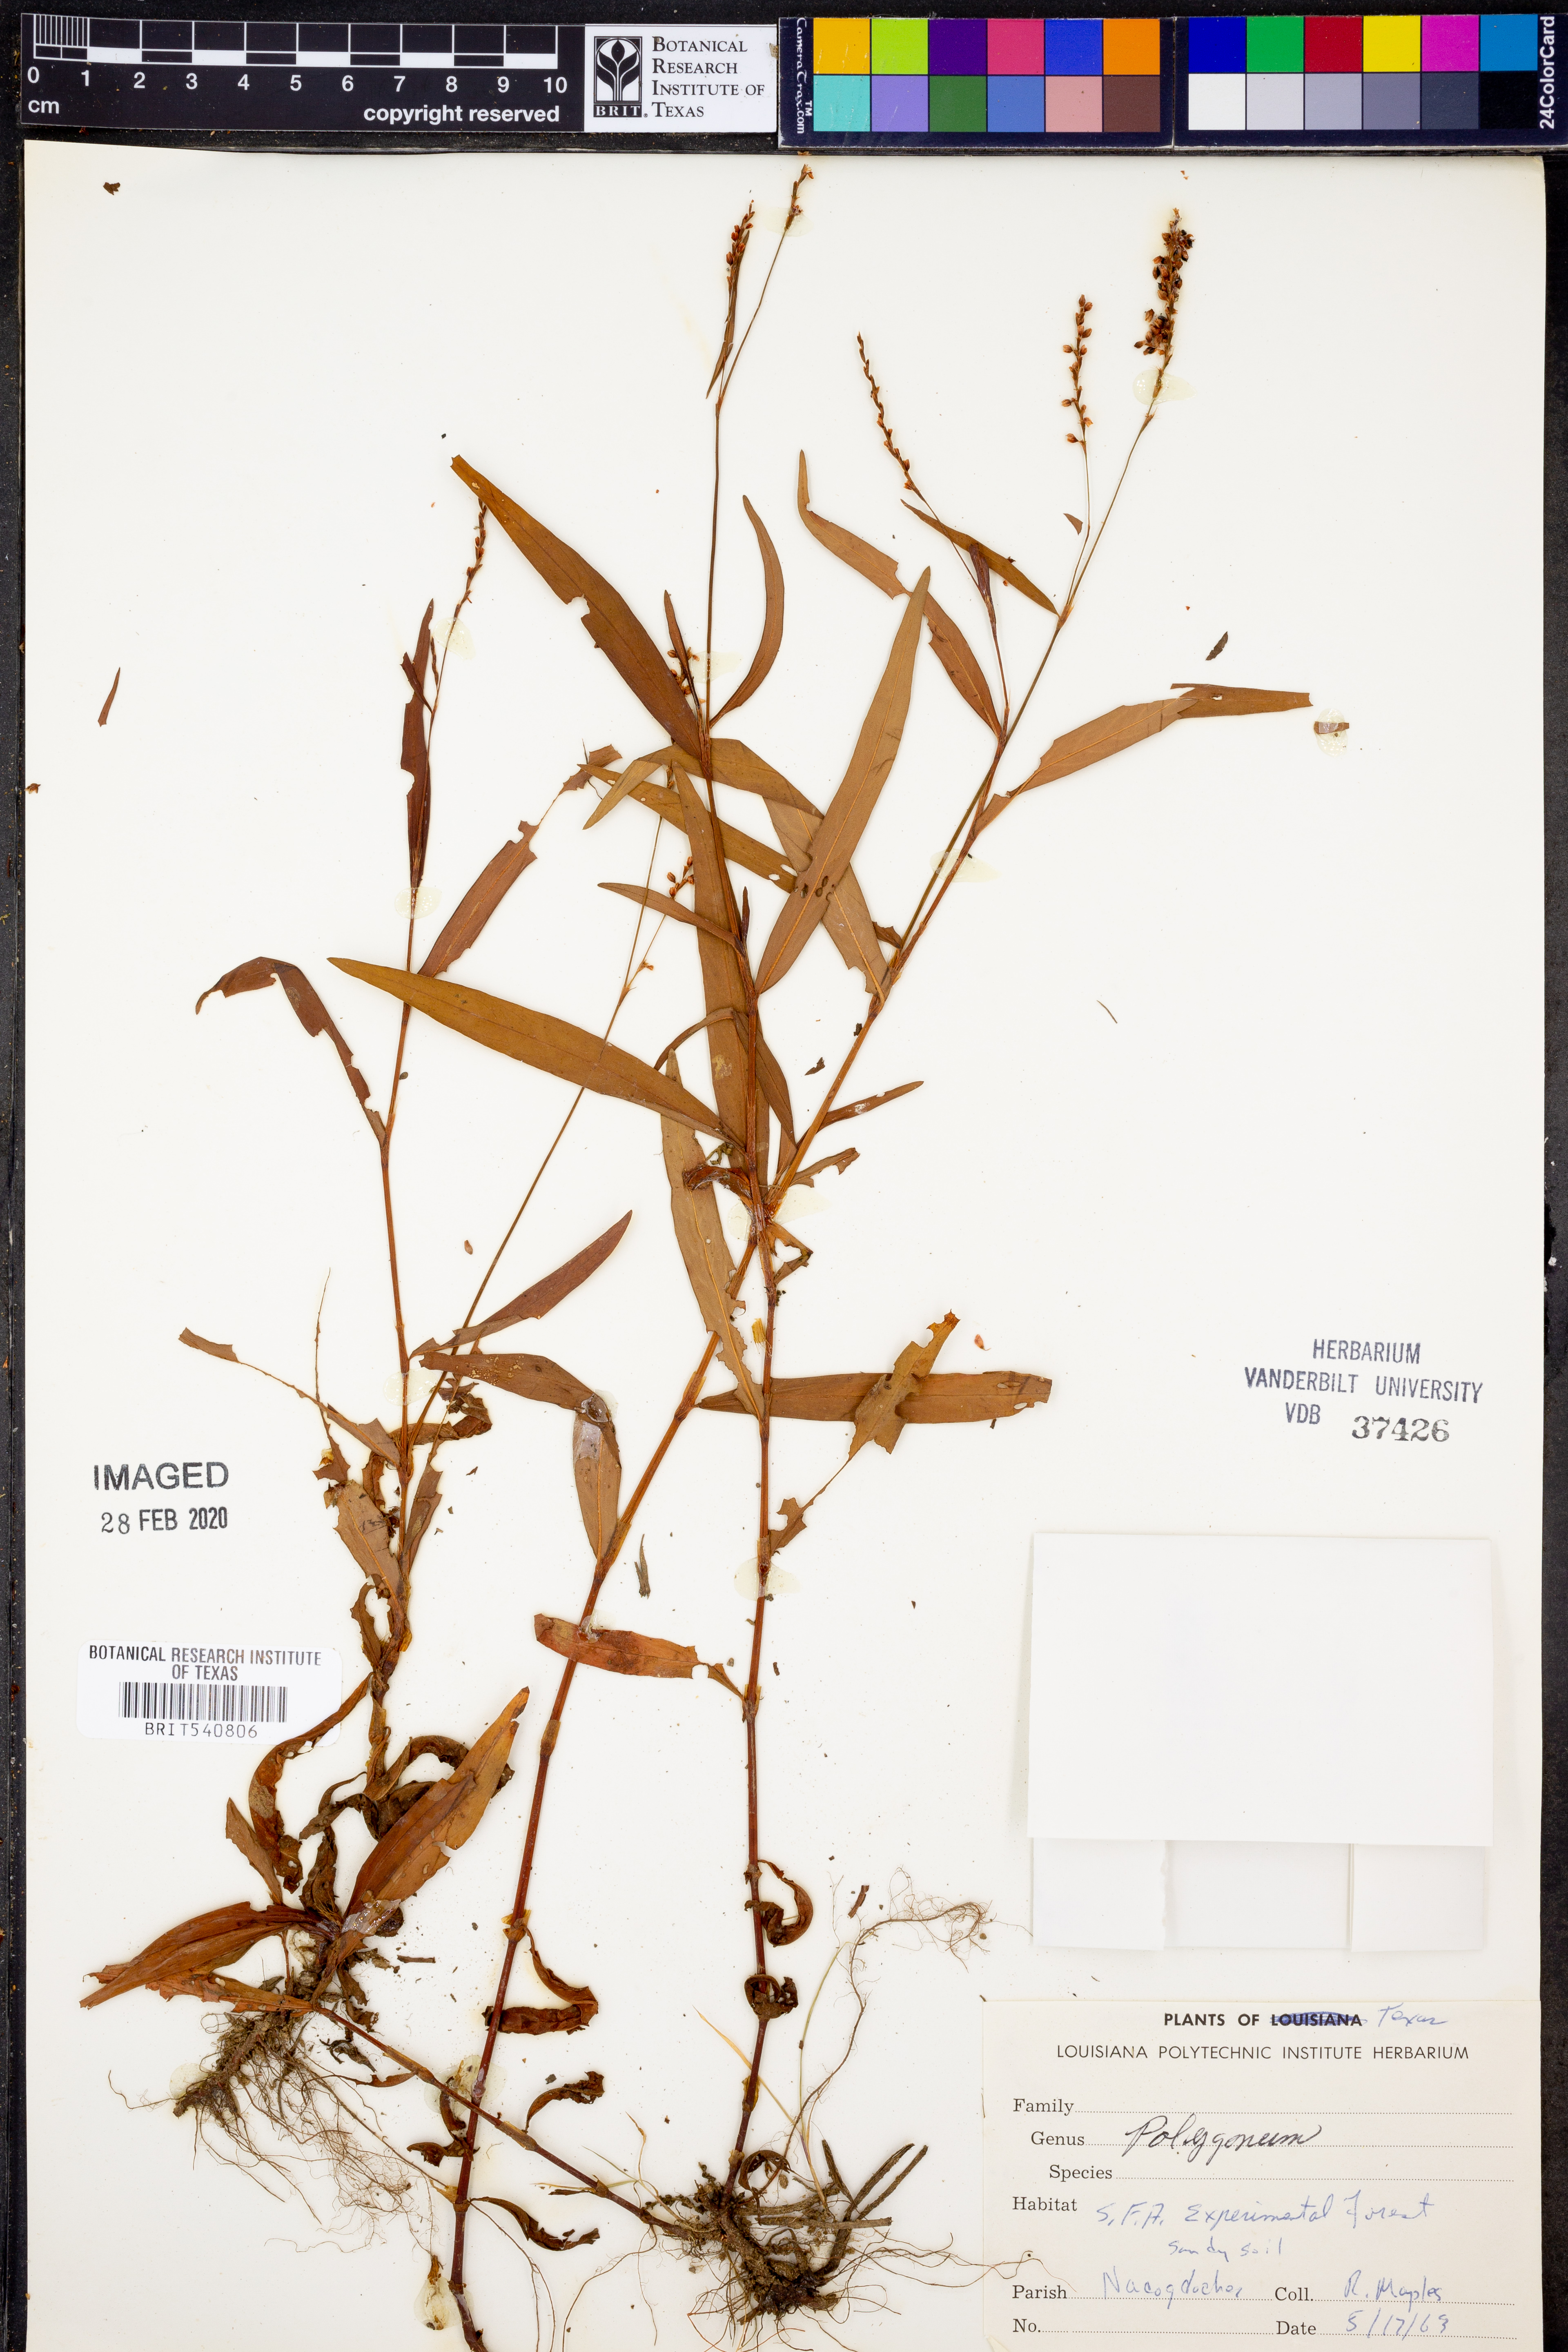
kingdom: Plantae
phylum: Tracheophyta
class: Magnoliopsida
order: Caryophyllales
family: Polygonaceae
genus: Polygonum
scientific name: Polygonum
